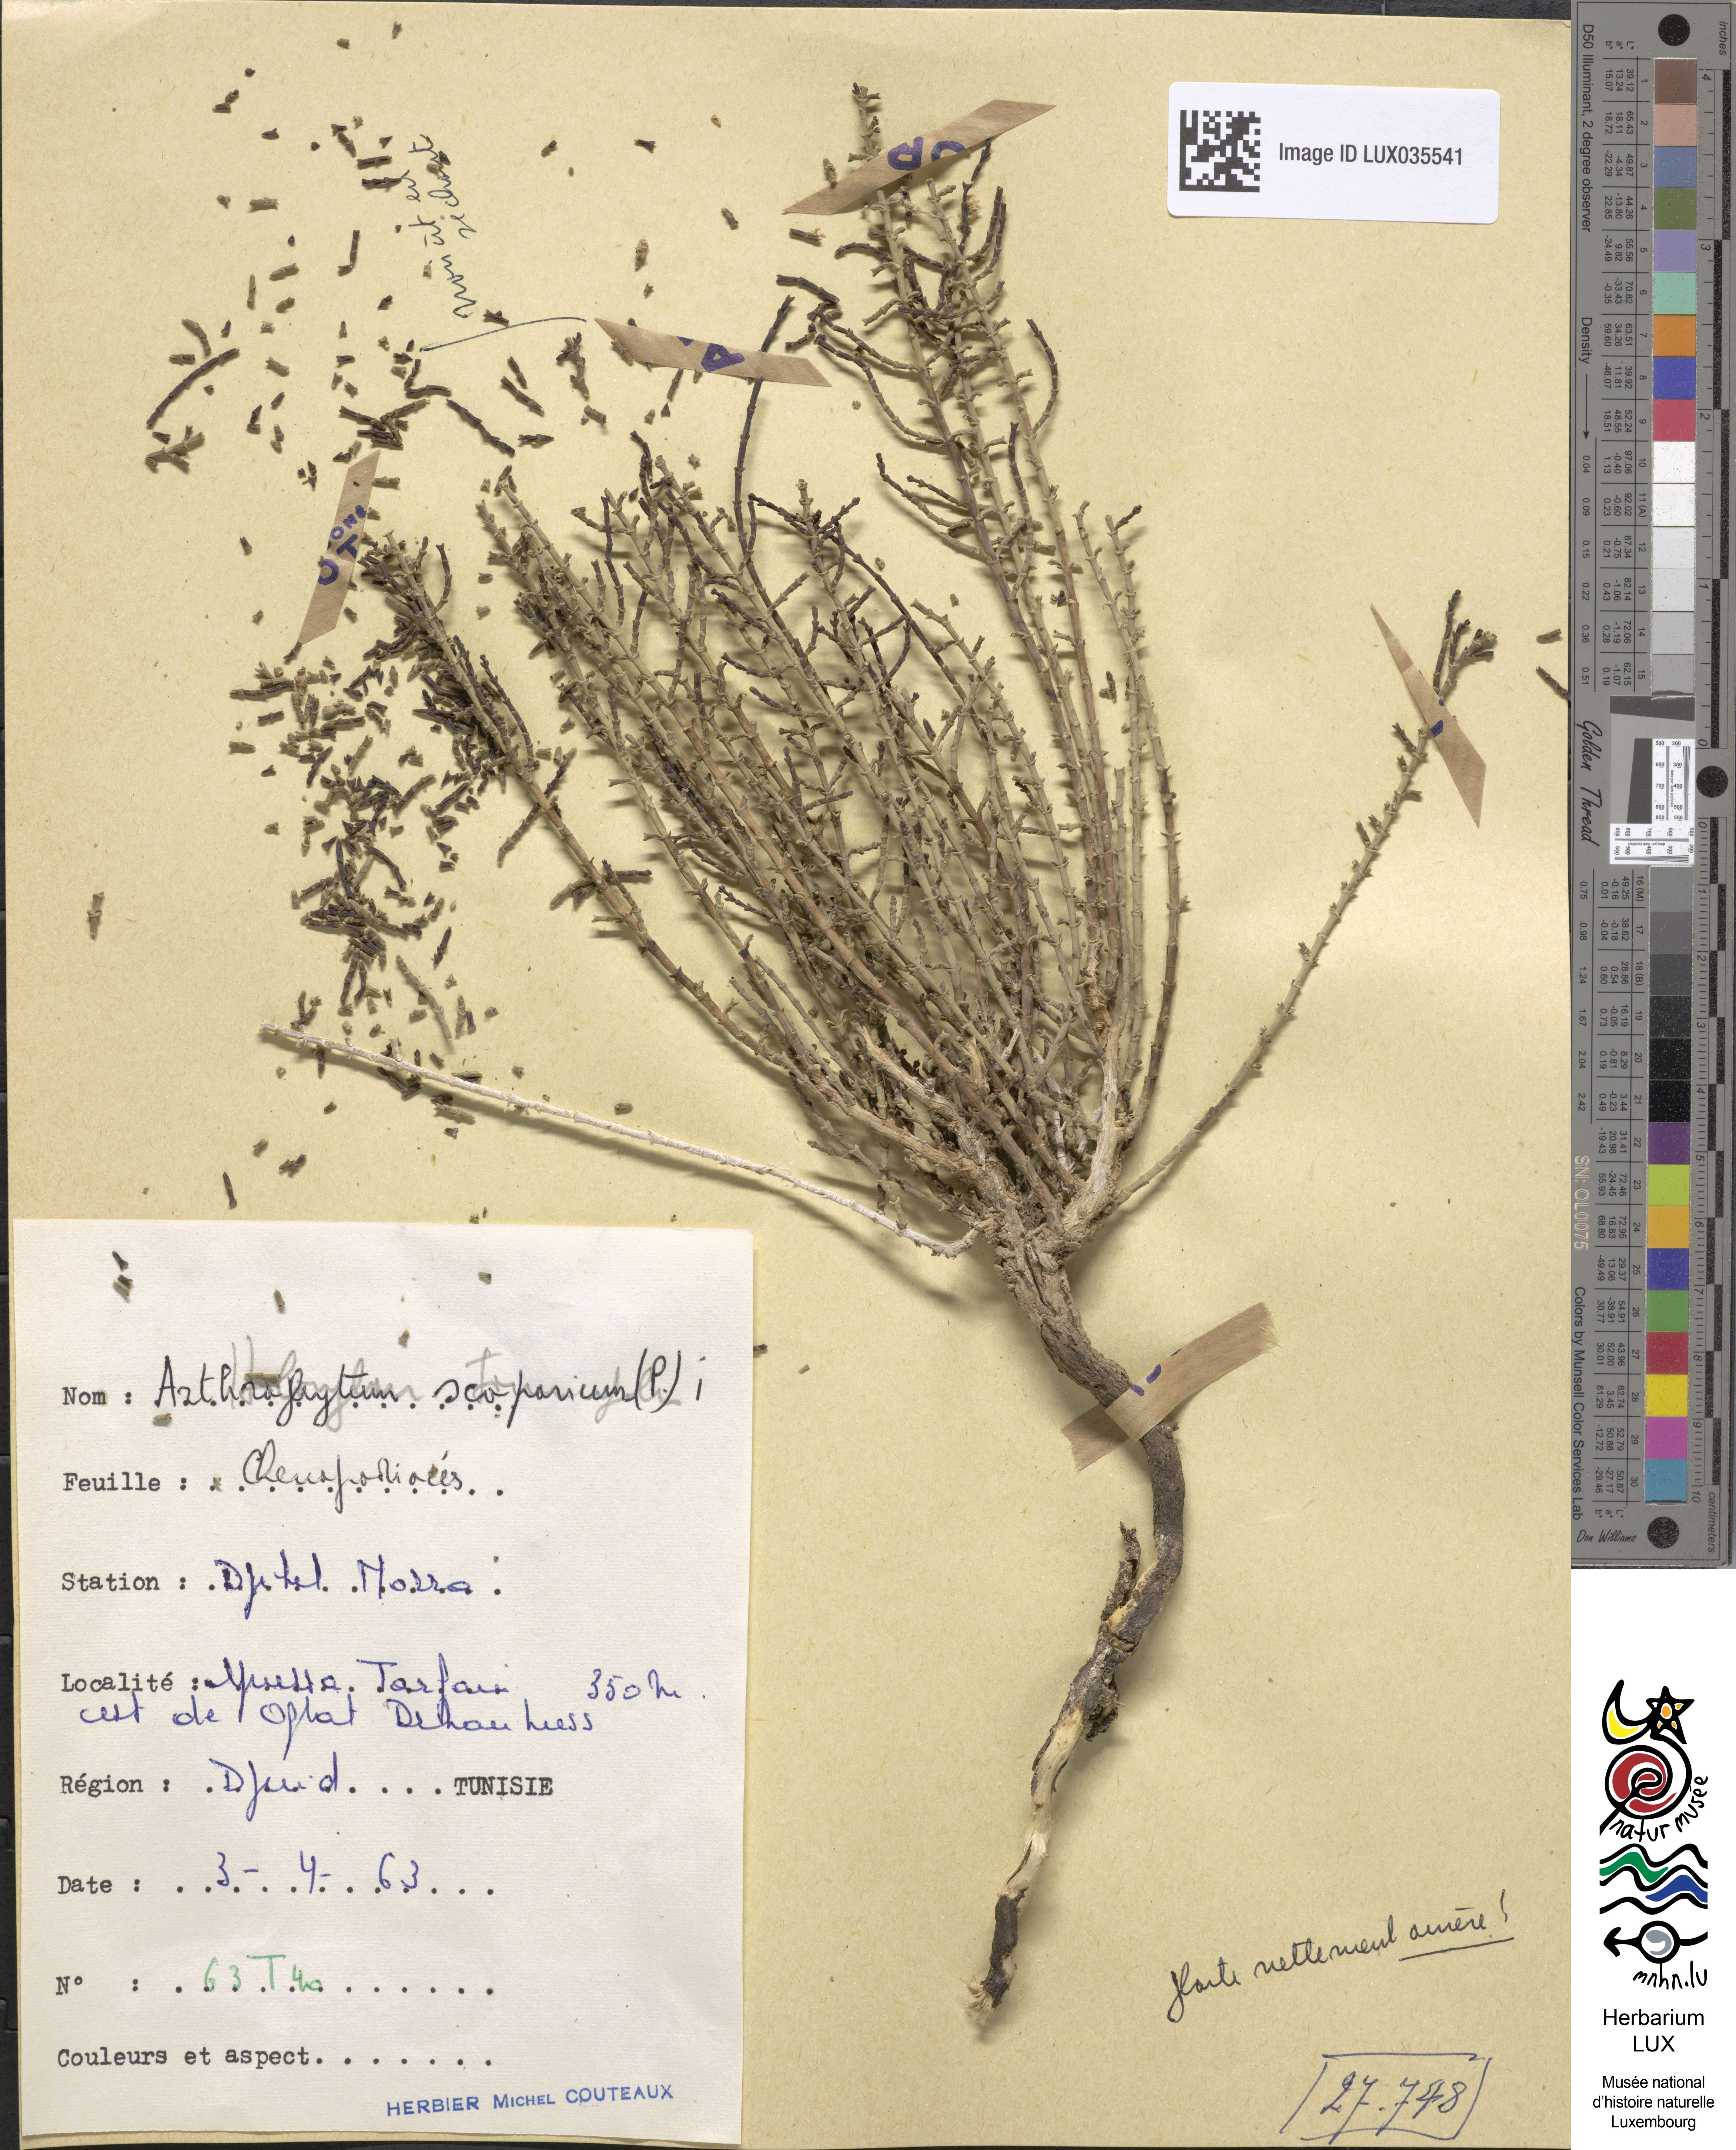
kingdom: Plantae
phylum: Tracheophyta
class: Magnoliopsida
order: Caryophyllales
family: Amaranthaceae
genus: Haloxylon
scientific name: Haloxylon scoparium
